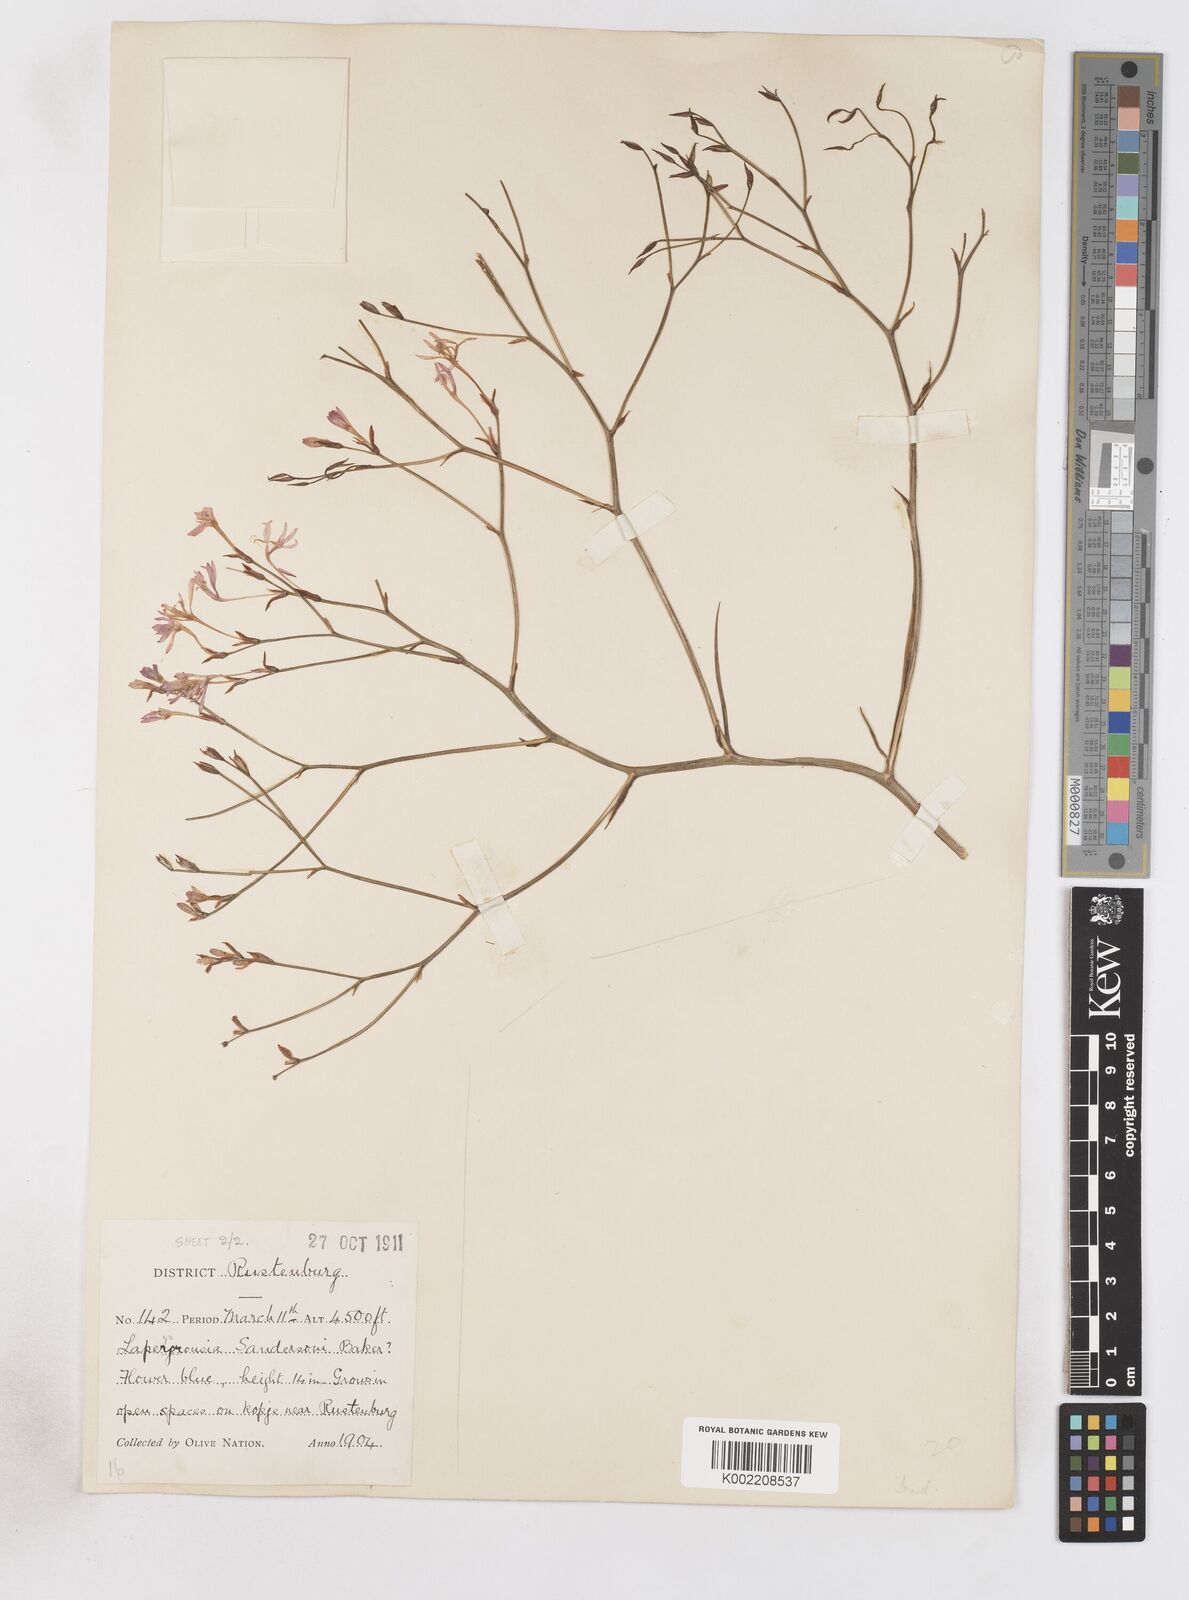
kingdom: Plantae
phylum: Tracheophyta
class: Liliopsida
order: Asparagales
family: Iridaceae
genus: Afrosolen
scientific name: Afrosolen sandersonii
